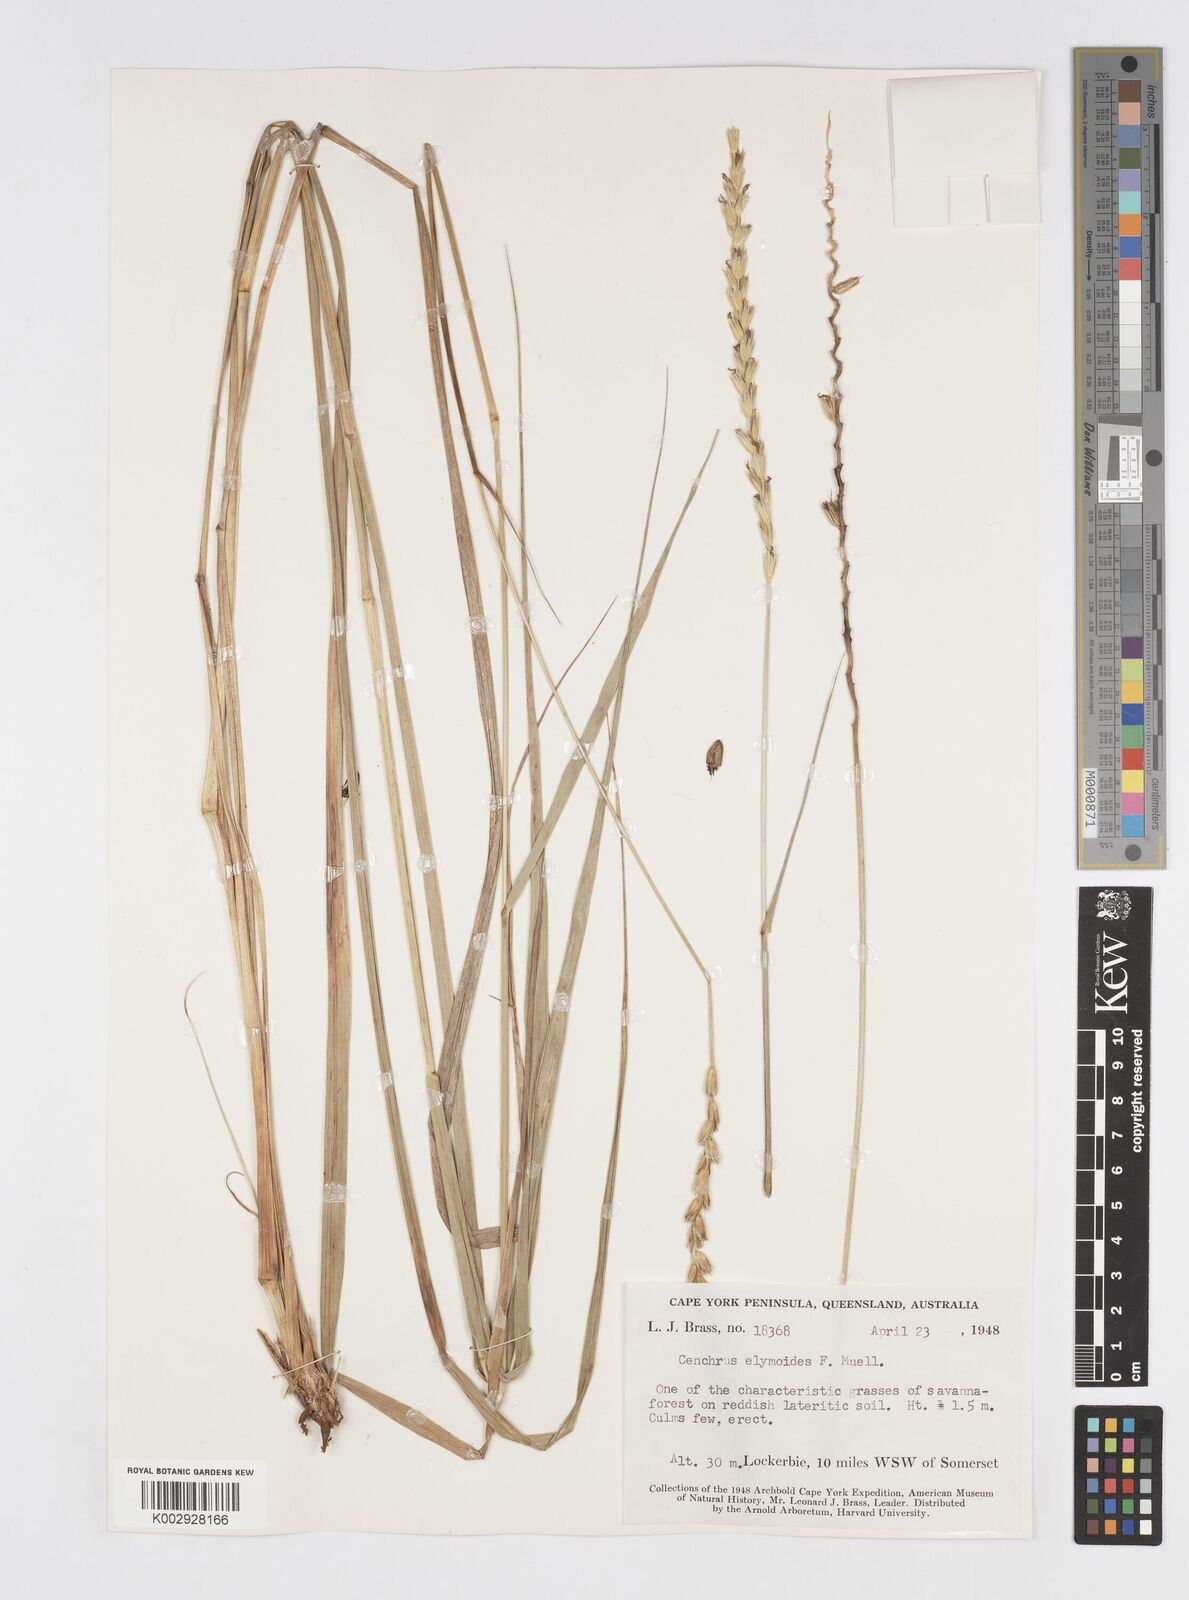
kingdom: Plantae
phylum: Tracheophyta
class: Liliopsida
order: Poales
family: Poaceae
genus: Cenchrus
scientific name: Cenchrus elymoides
